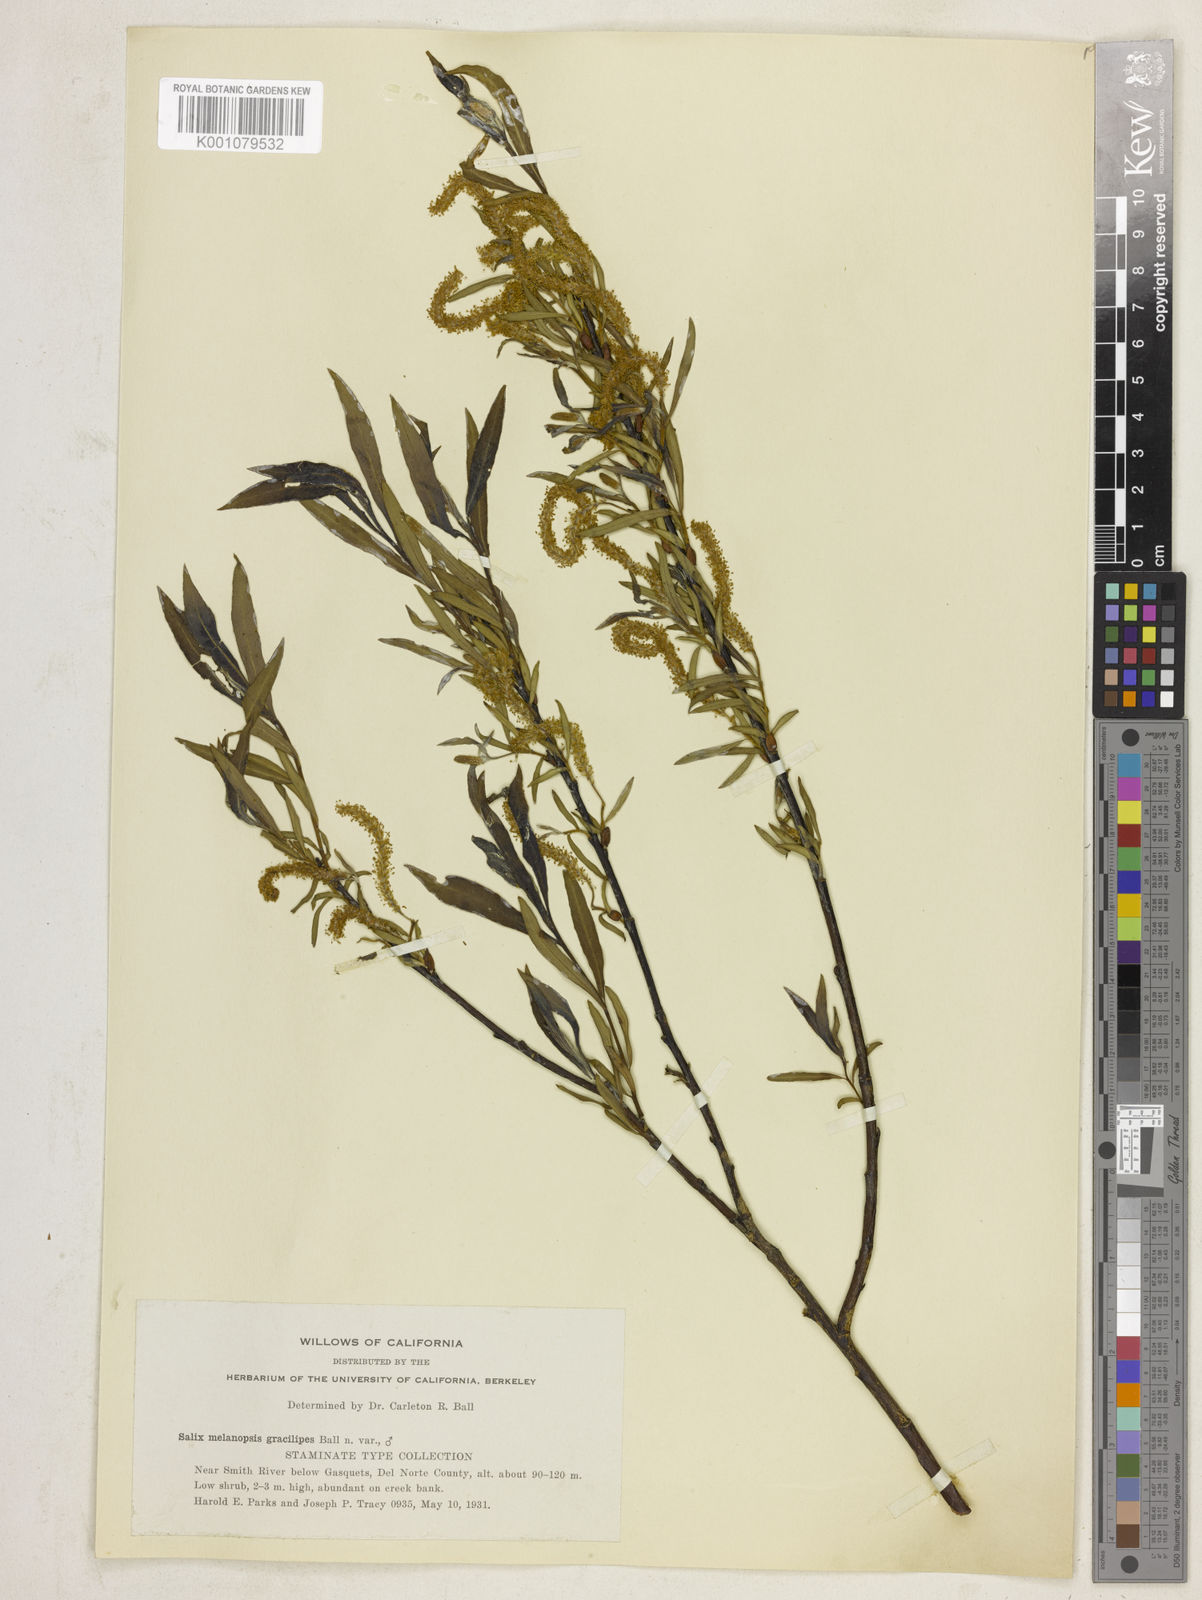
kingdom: Plantae
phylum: Tracheophyta
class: Magnoliopsida
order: Malpighiales
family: Salicaceae
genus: Salix
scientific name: Salix melanopsis
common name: Dusky willow
